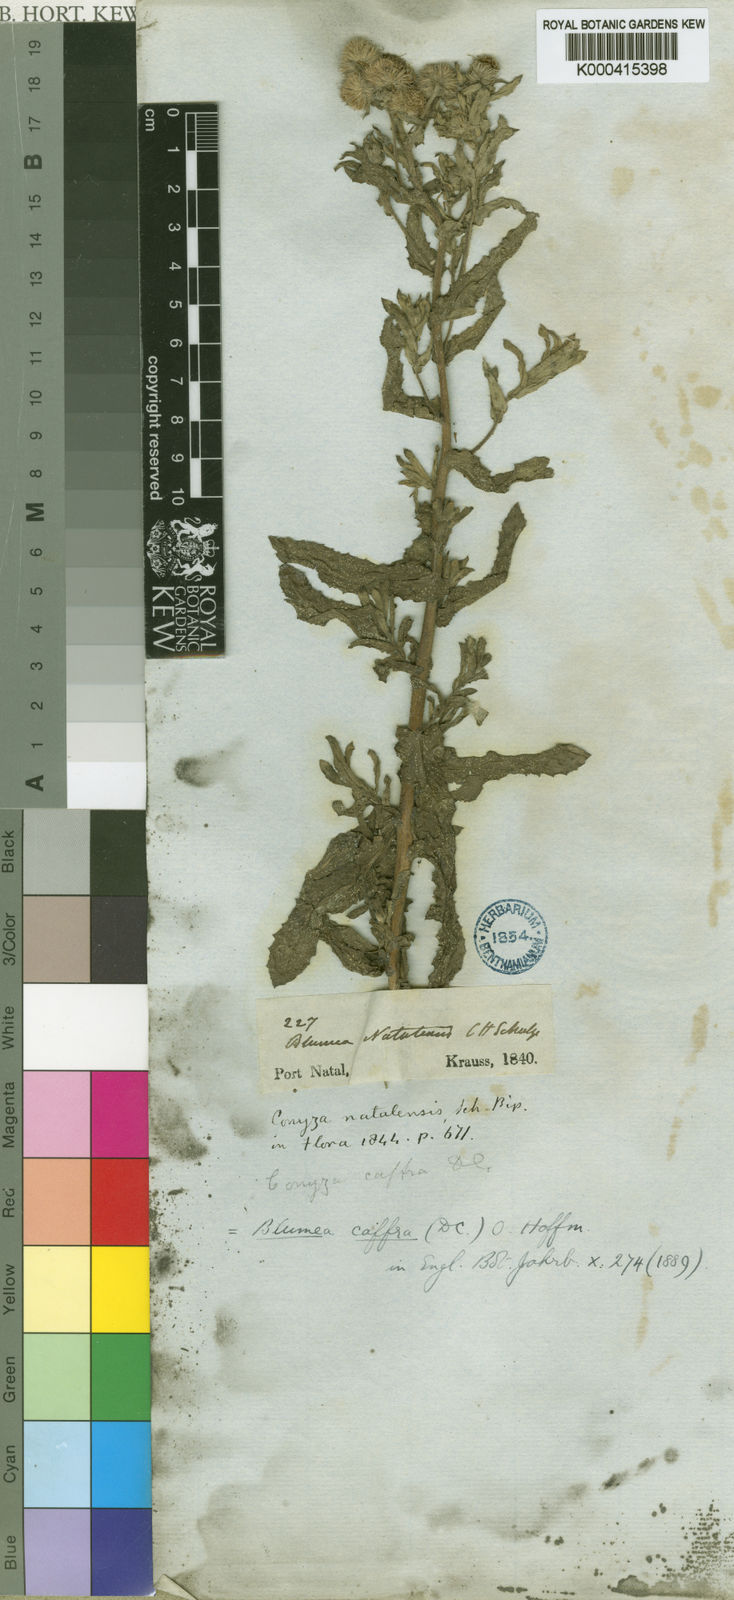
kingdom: Plantae
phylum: Tracheophyta
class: Magnoliopsida
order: Asterales
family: Asteraceae
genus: Doellia
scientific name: Doellia cafra
